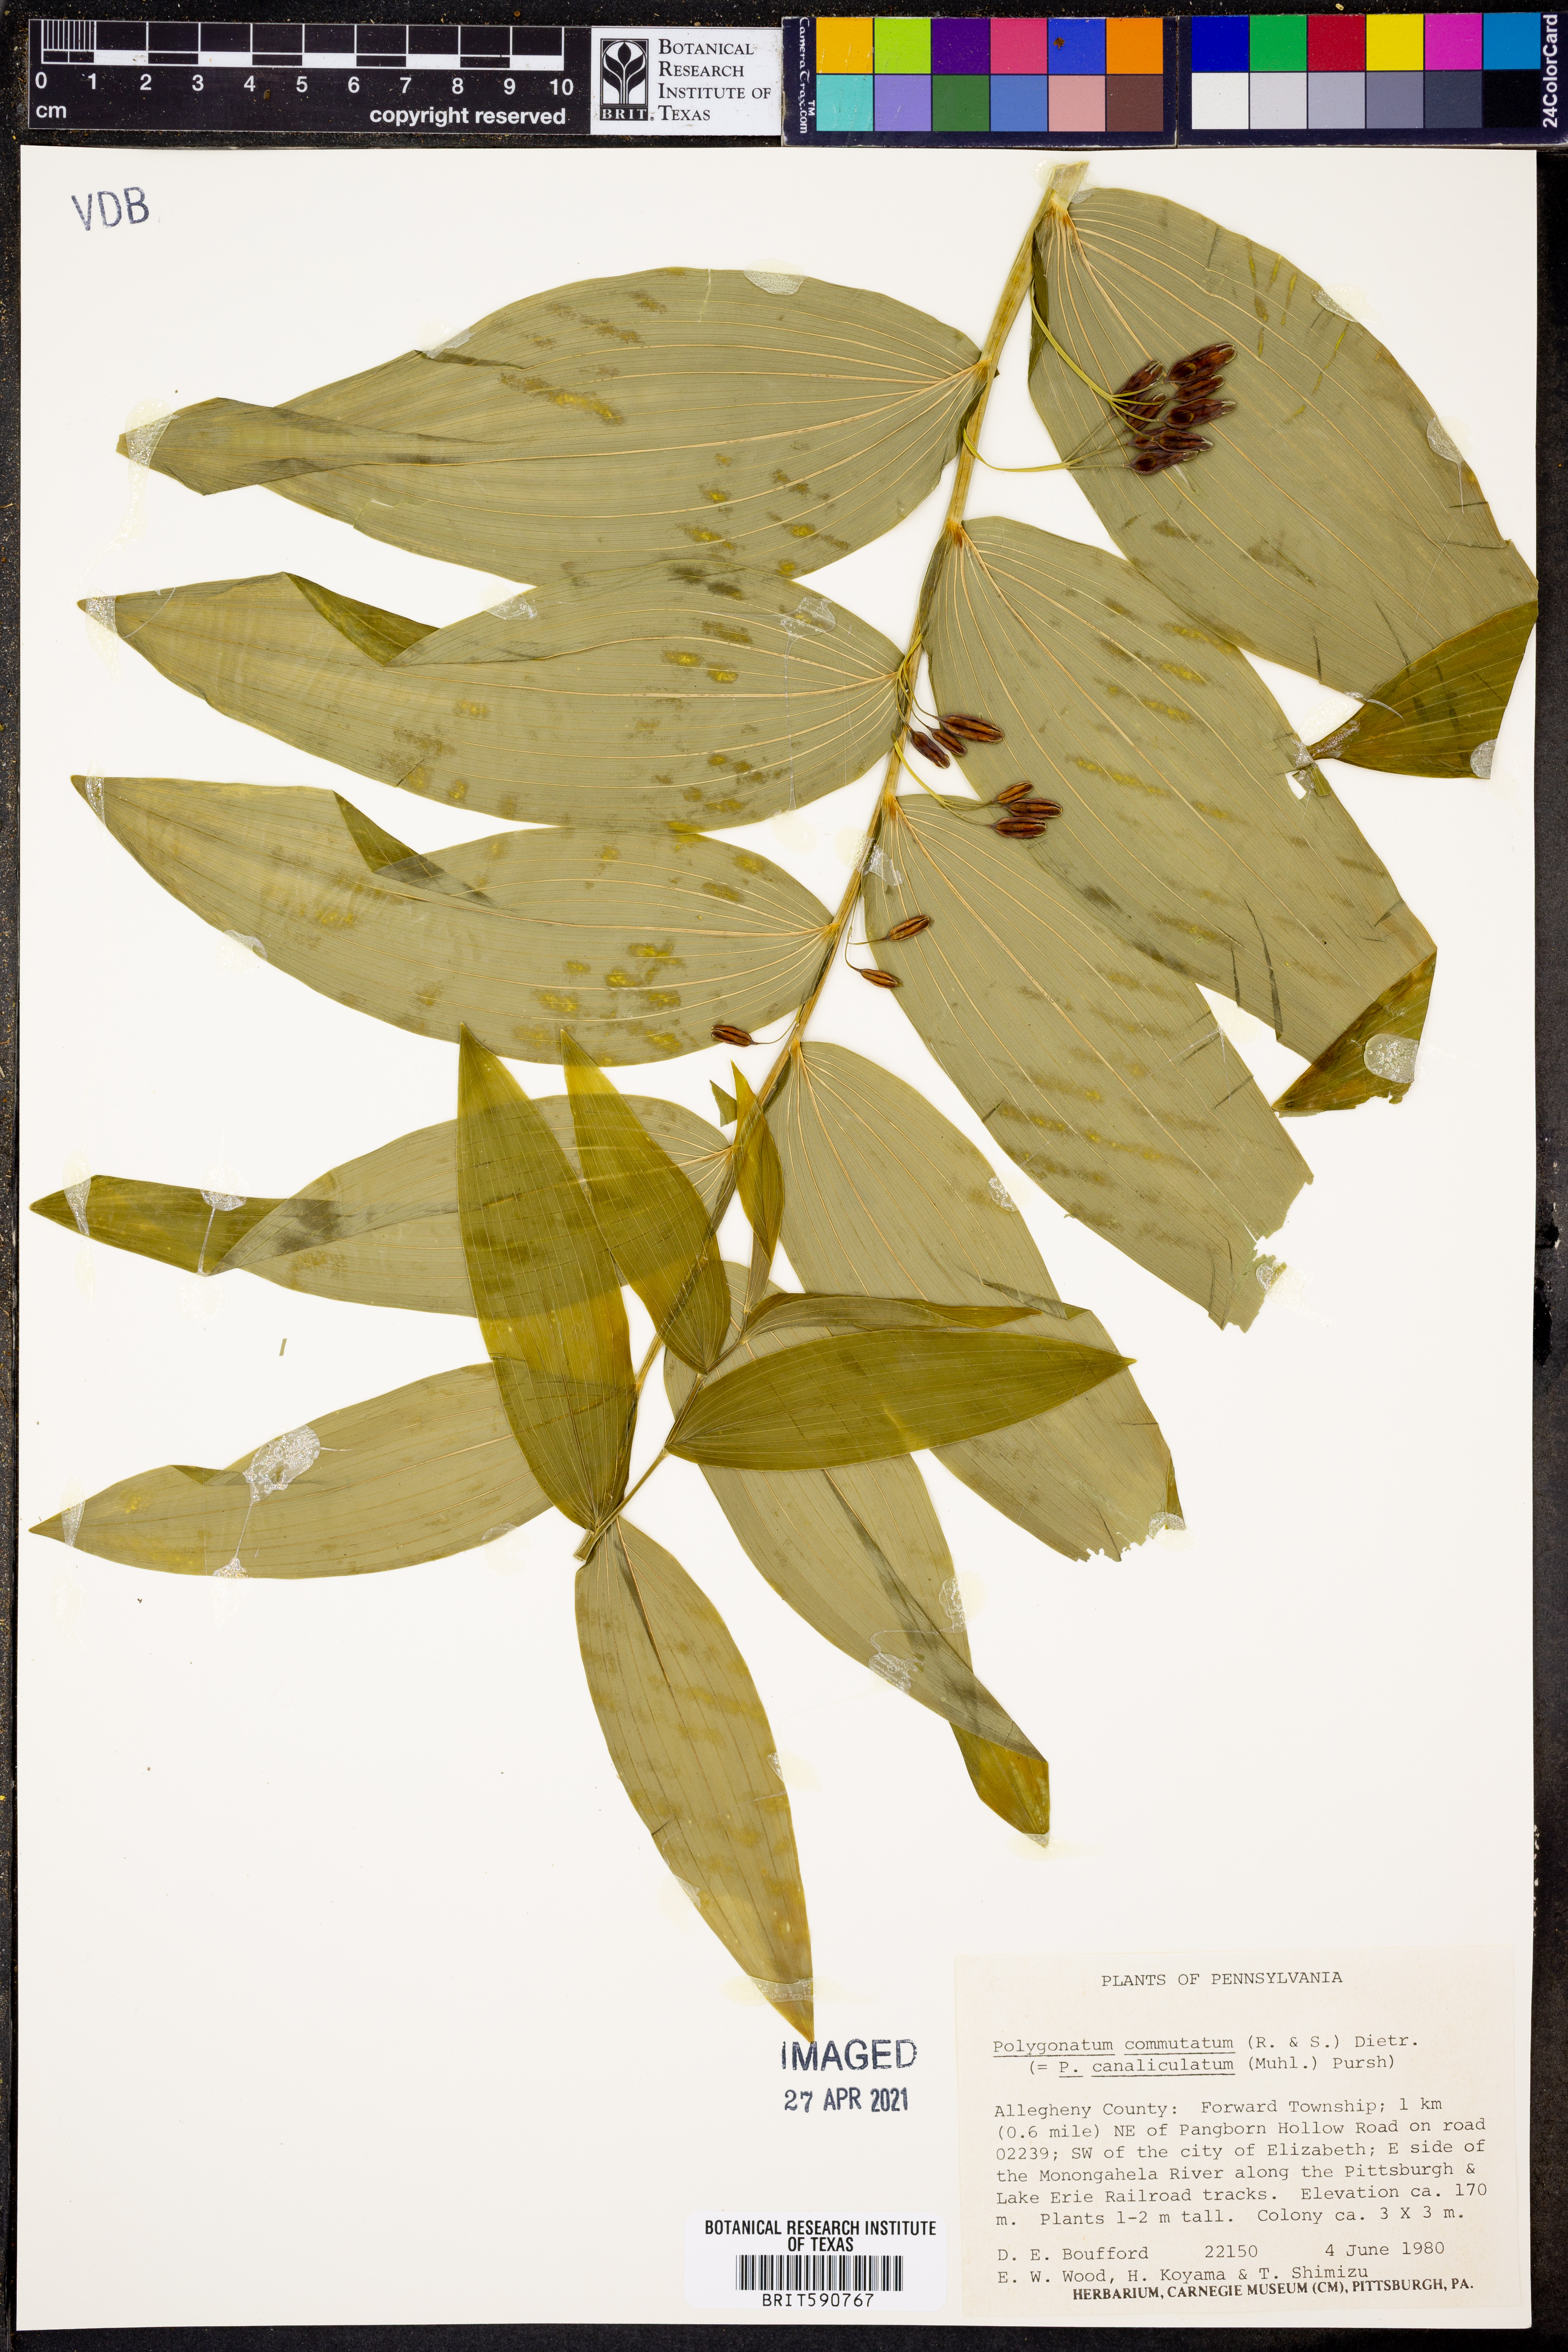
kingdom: Plantae
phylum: Tracheophyta
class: Liliopsida
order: Asparagales
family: Asparagaceae
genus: Polygonatum
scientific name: Polygonatum biflorum
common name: American solomon's-seal
